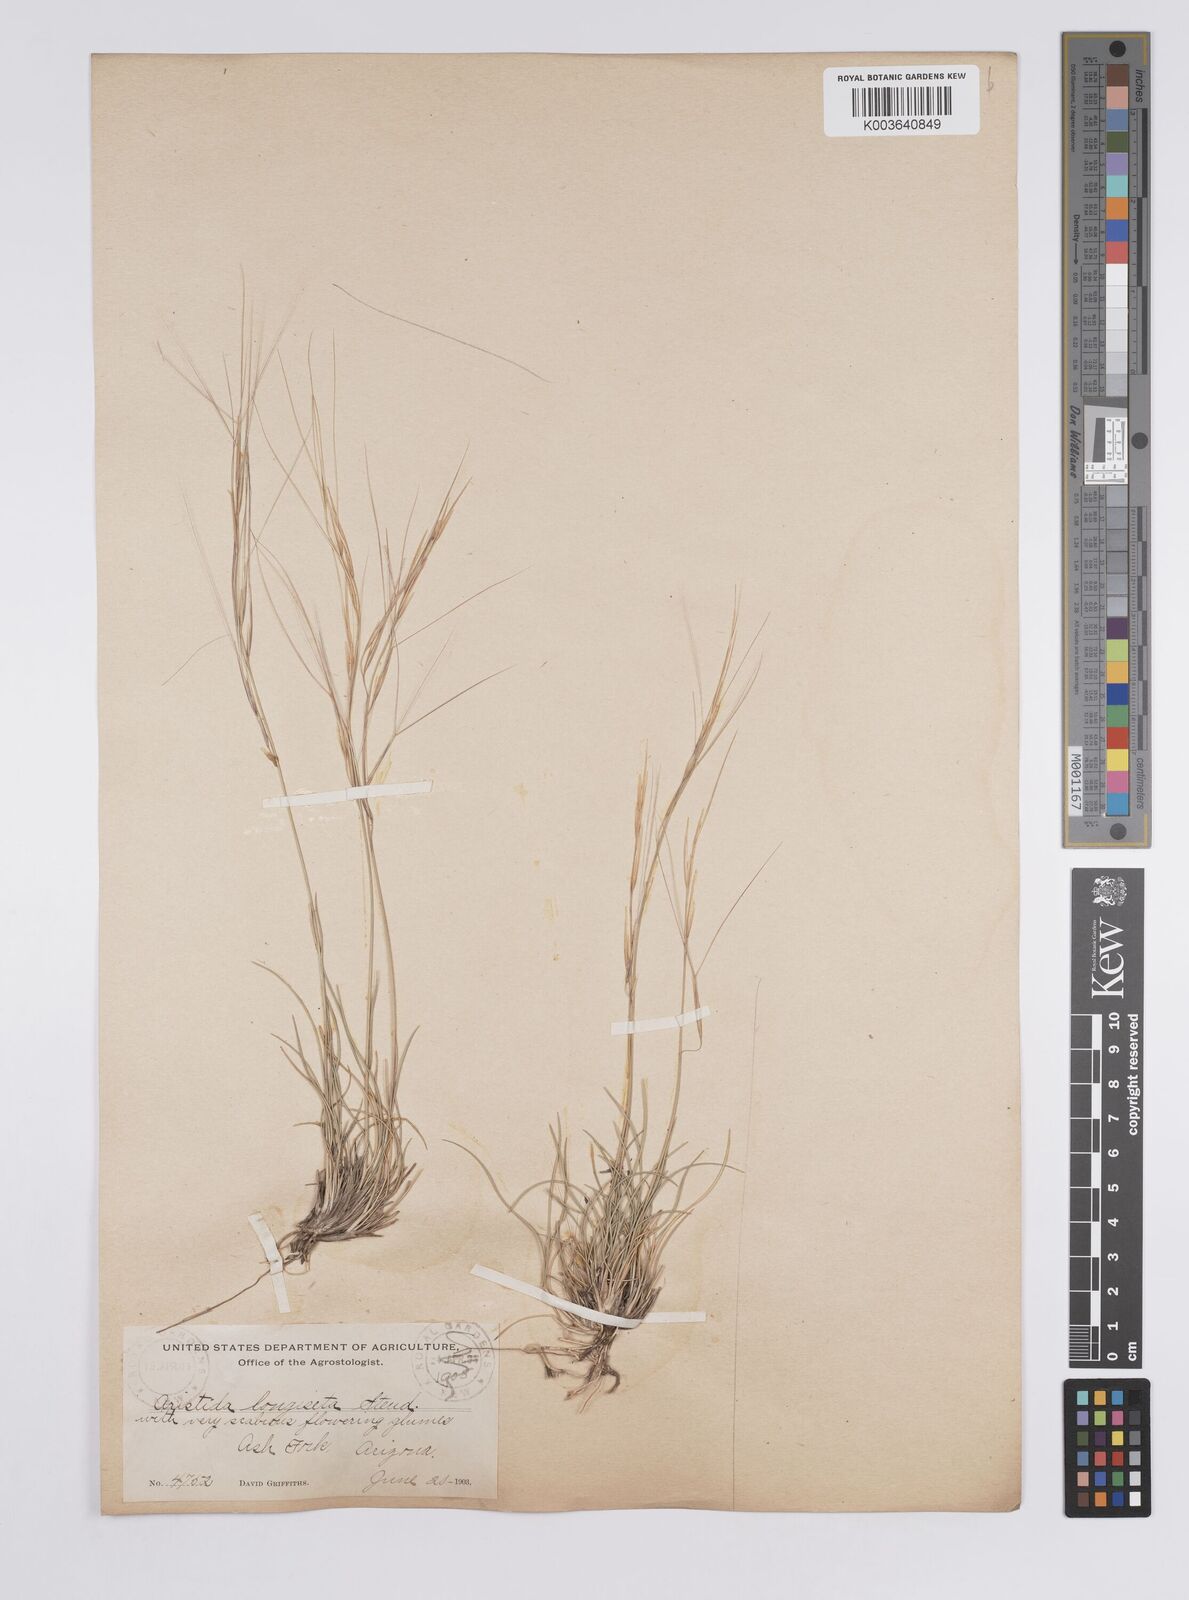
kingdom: Plantae
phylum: Tracheophyta
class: Liliopsida
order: Poales
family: Poaceae
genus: Aristida
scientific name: Aristida purpurea
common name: Purple threeawn
